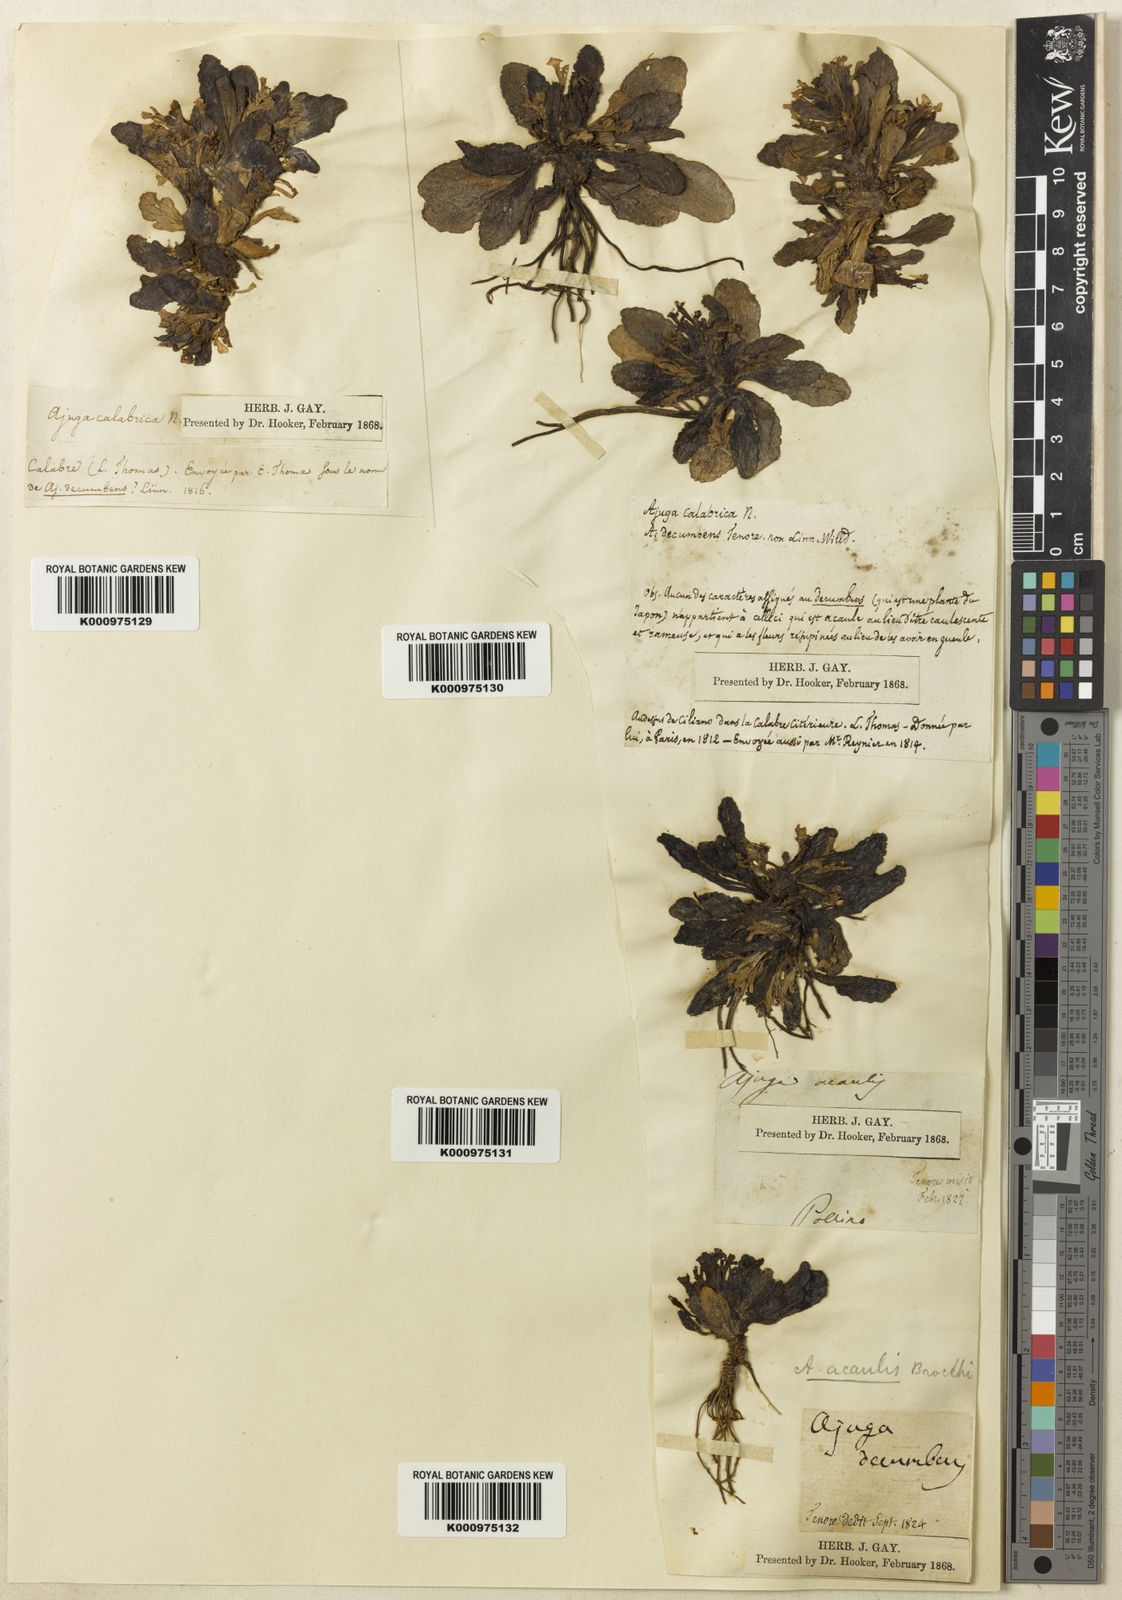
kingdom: Plantae
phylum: Tracheophyta
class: Magnoliopsida
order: Lamiales
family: Lamiaceae
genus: Ajuga
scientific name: Ajuga tenorei
